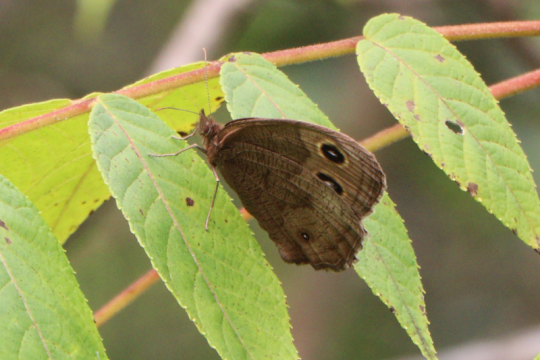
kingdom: Animalia
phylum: Arthropoda
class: Insecta
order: Lepidoptera
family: Nymphalidae
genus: Cercyonis
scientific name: Cercyonis pegala
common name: Common Wood-Nymph
